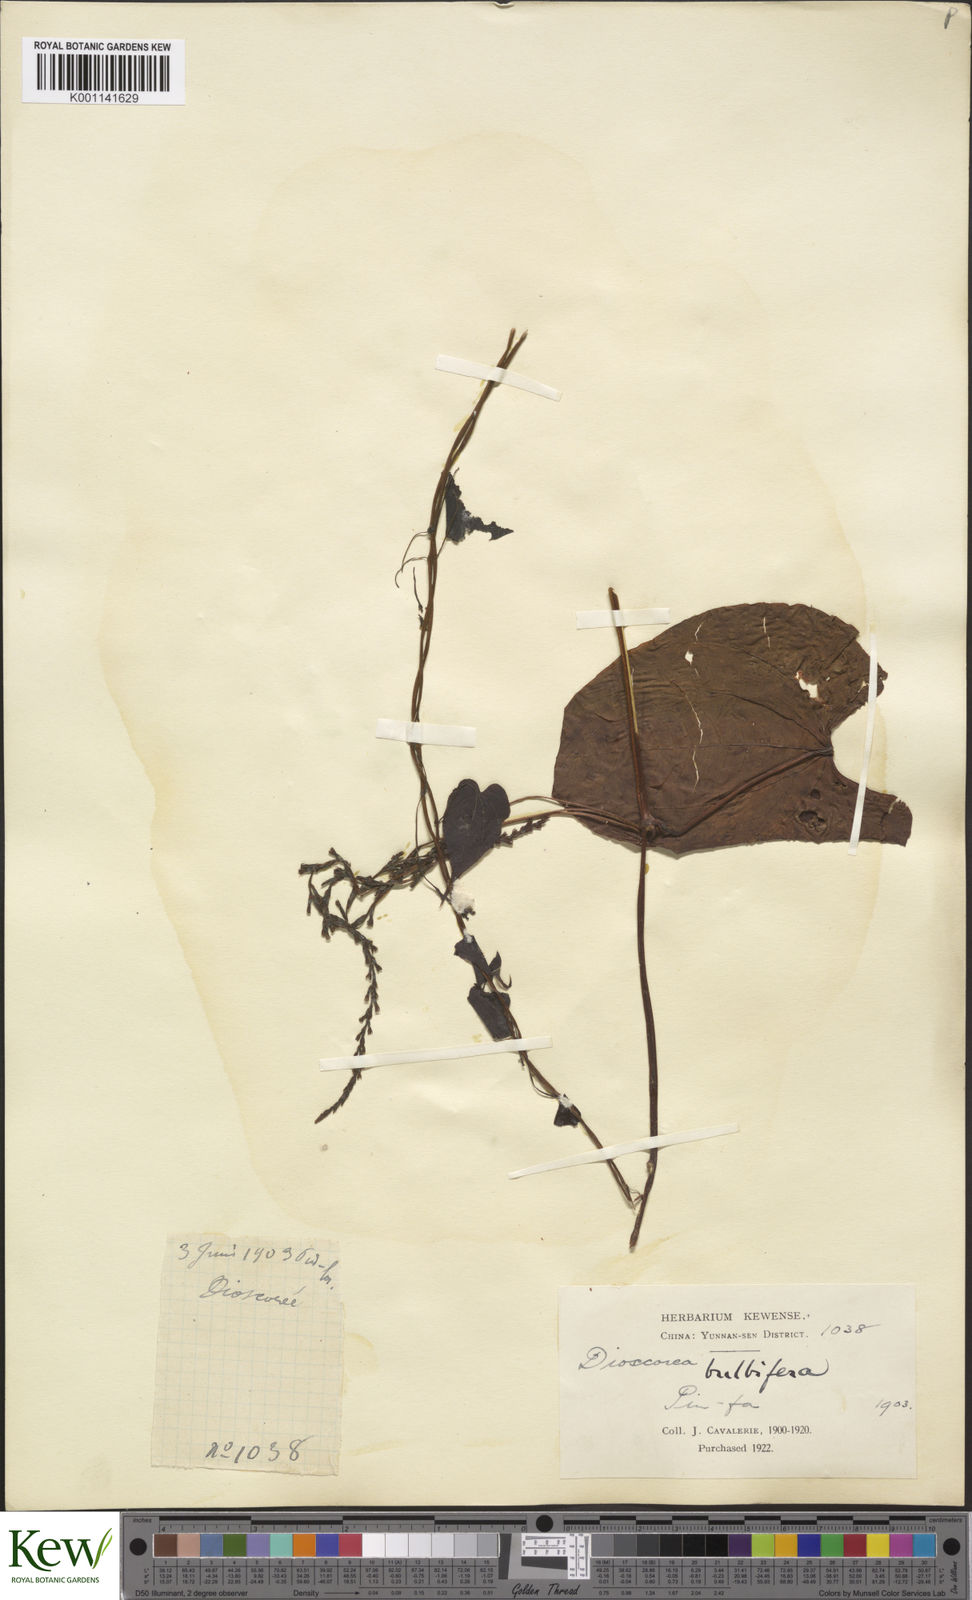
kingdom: Plantae
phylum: Tracheophyta
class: Liliopsida
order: Dioscoreales
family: Dioscoreaceae
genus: Dioscorea
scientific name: Dioscorea bulbifera
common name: Air yam
